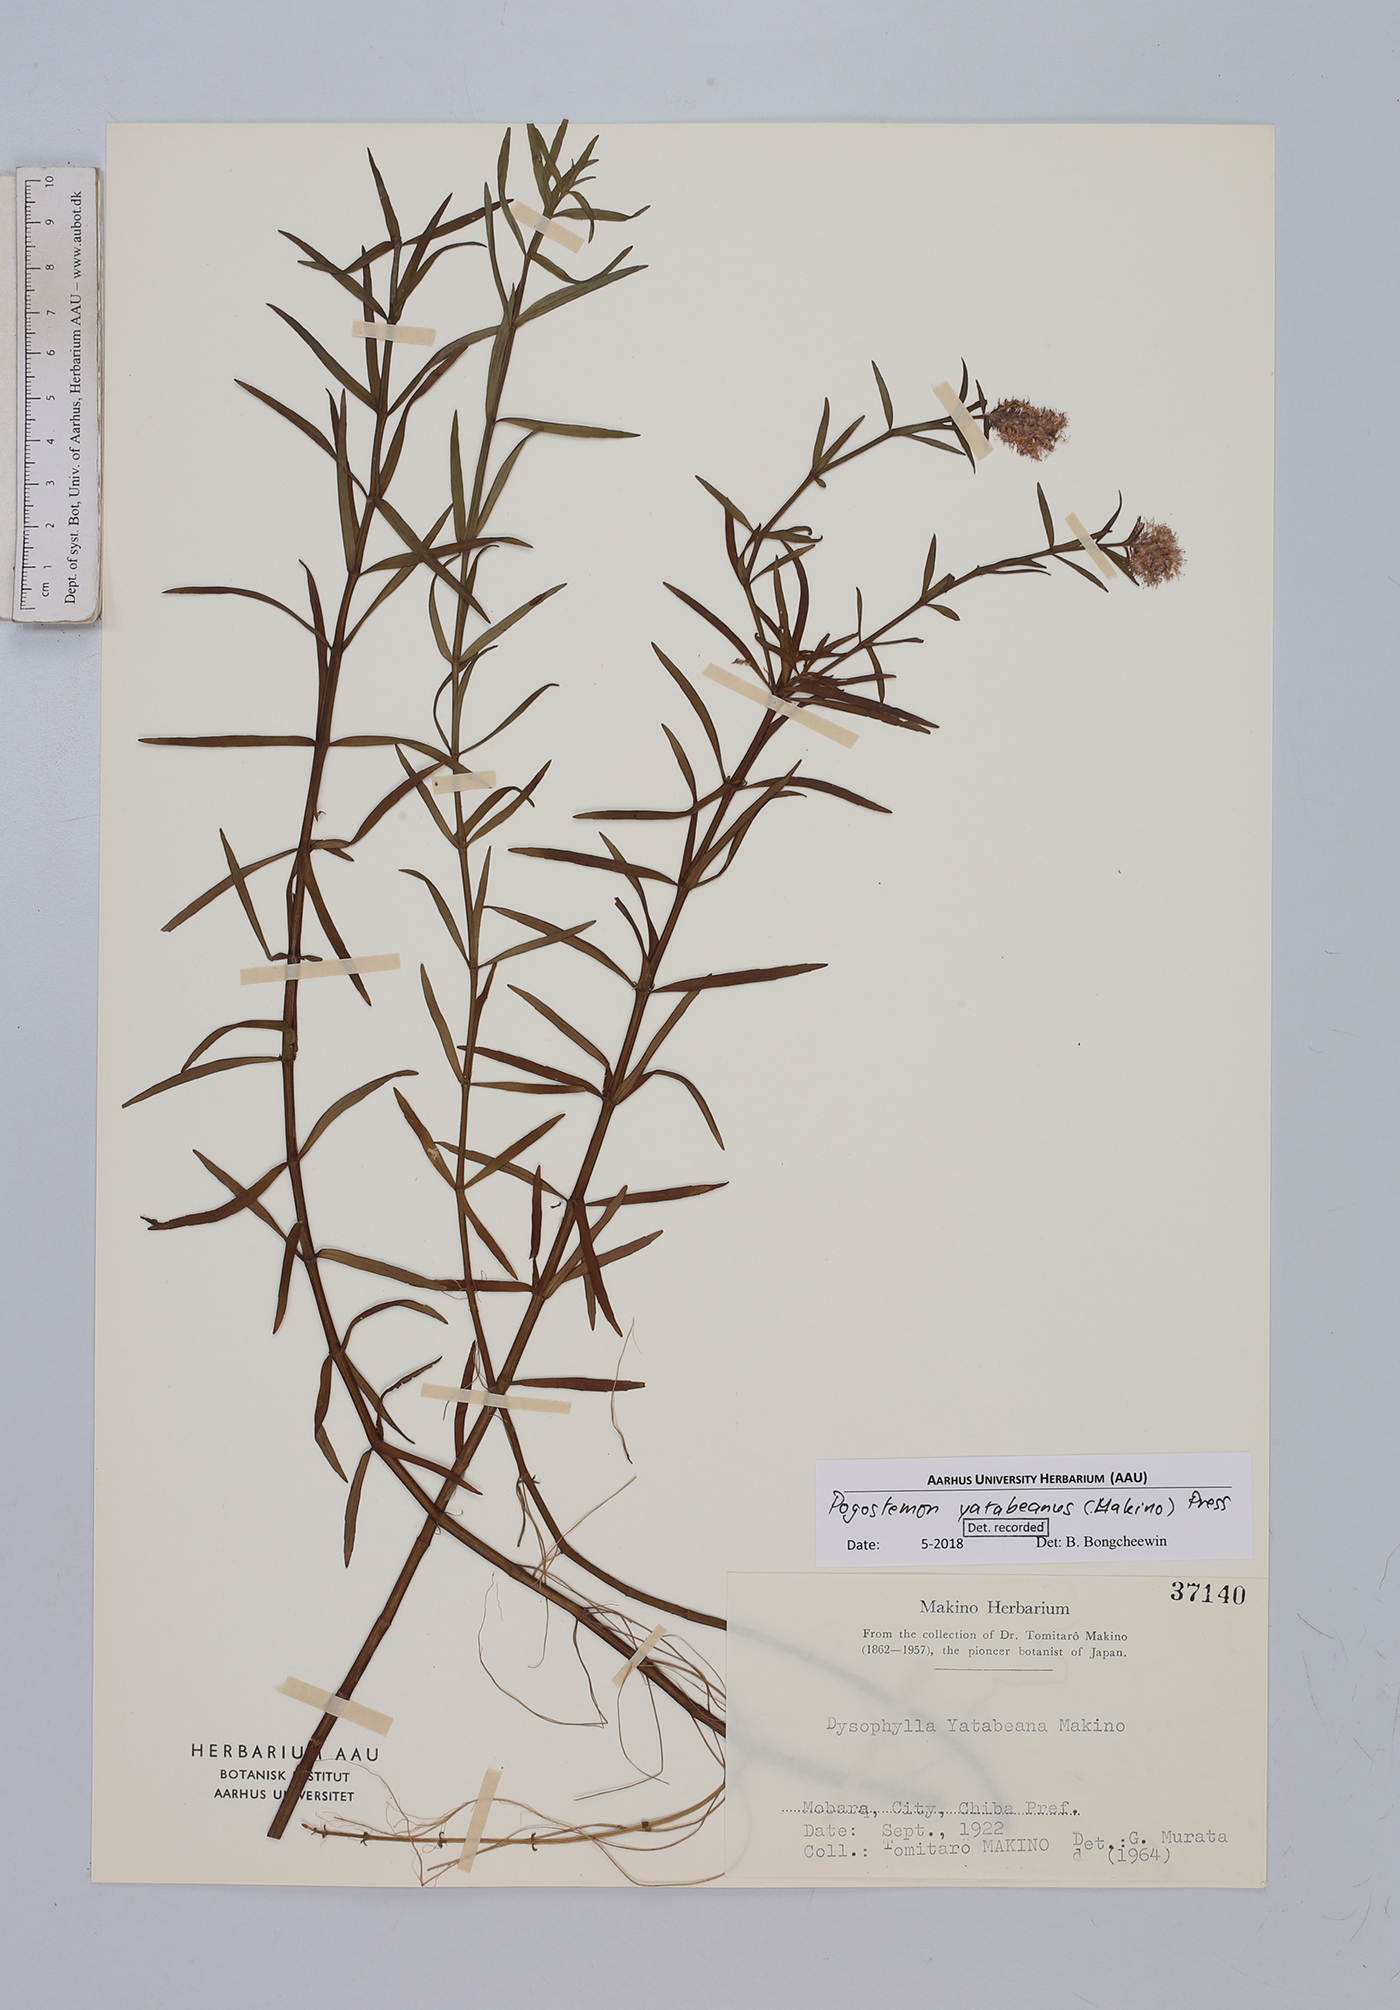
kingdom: Plantae
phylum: Tracheophyta
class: Magnoliopsida
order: Lamiales
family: Lamiaceae
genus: Pogostemon
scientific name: Pogostemon yatabeanus
